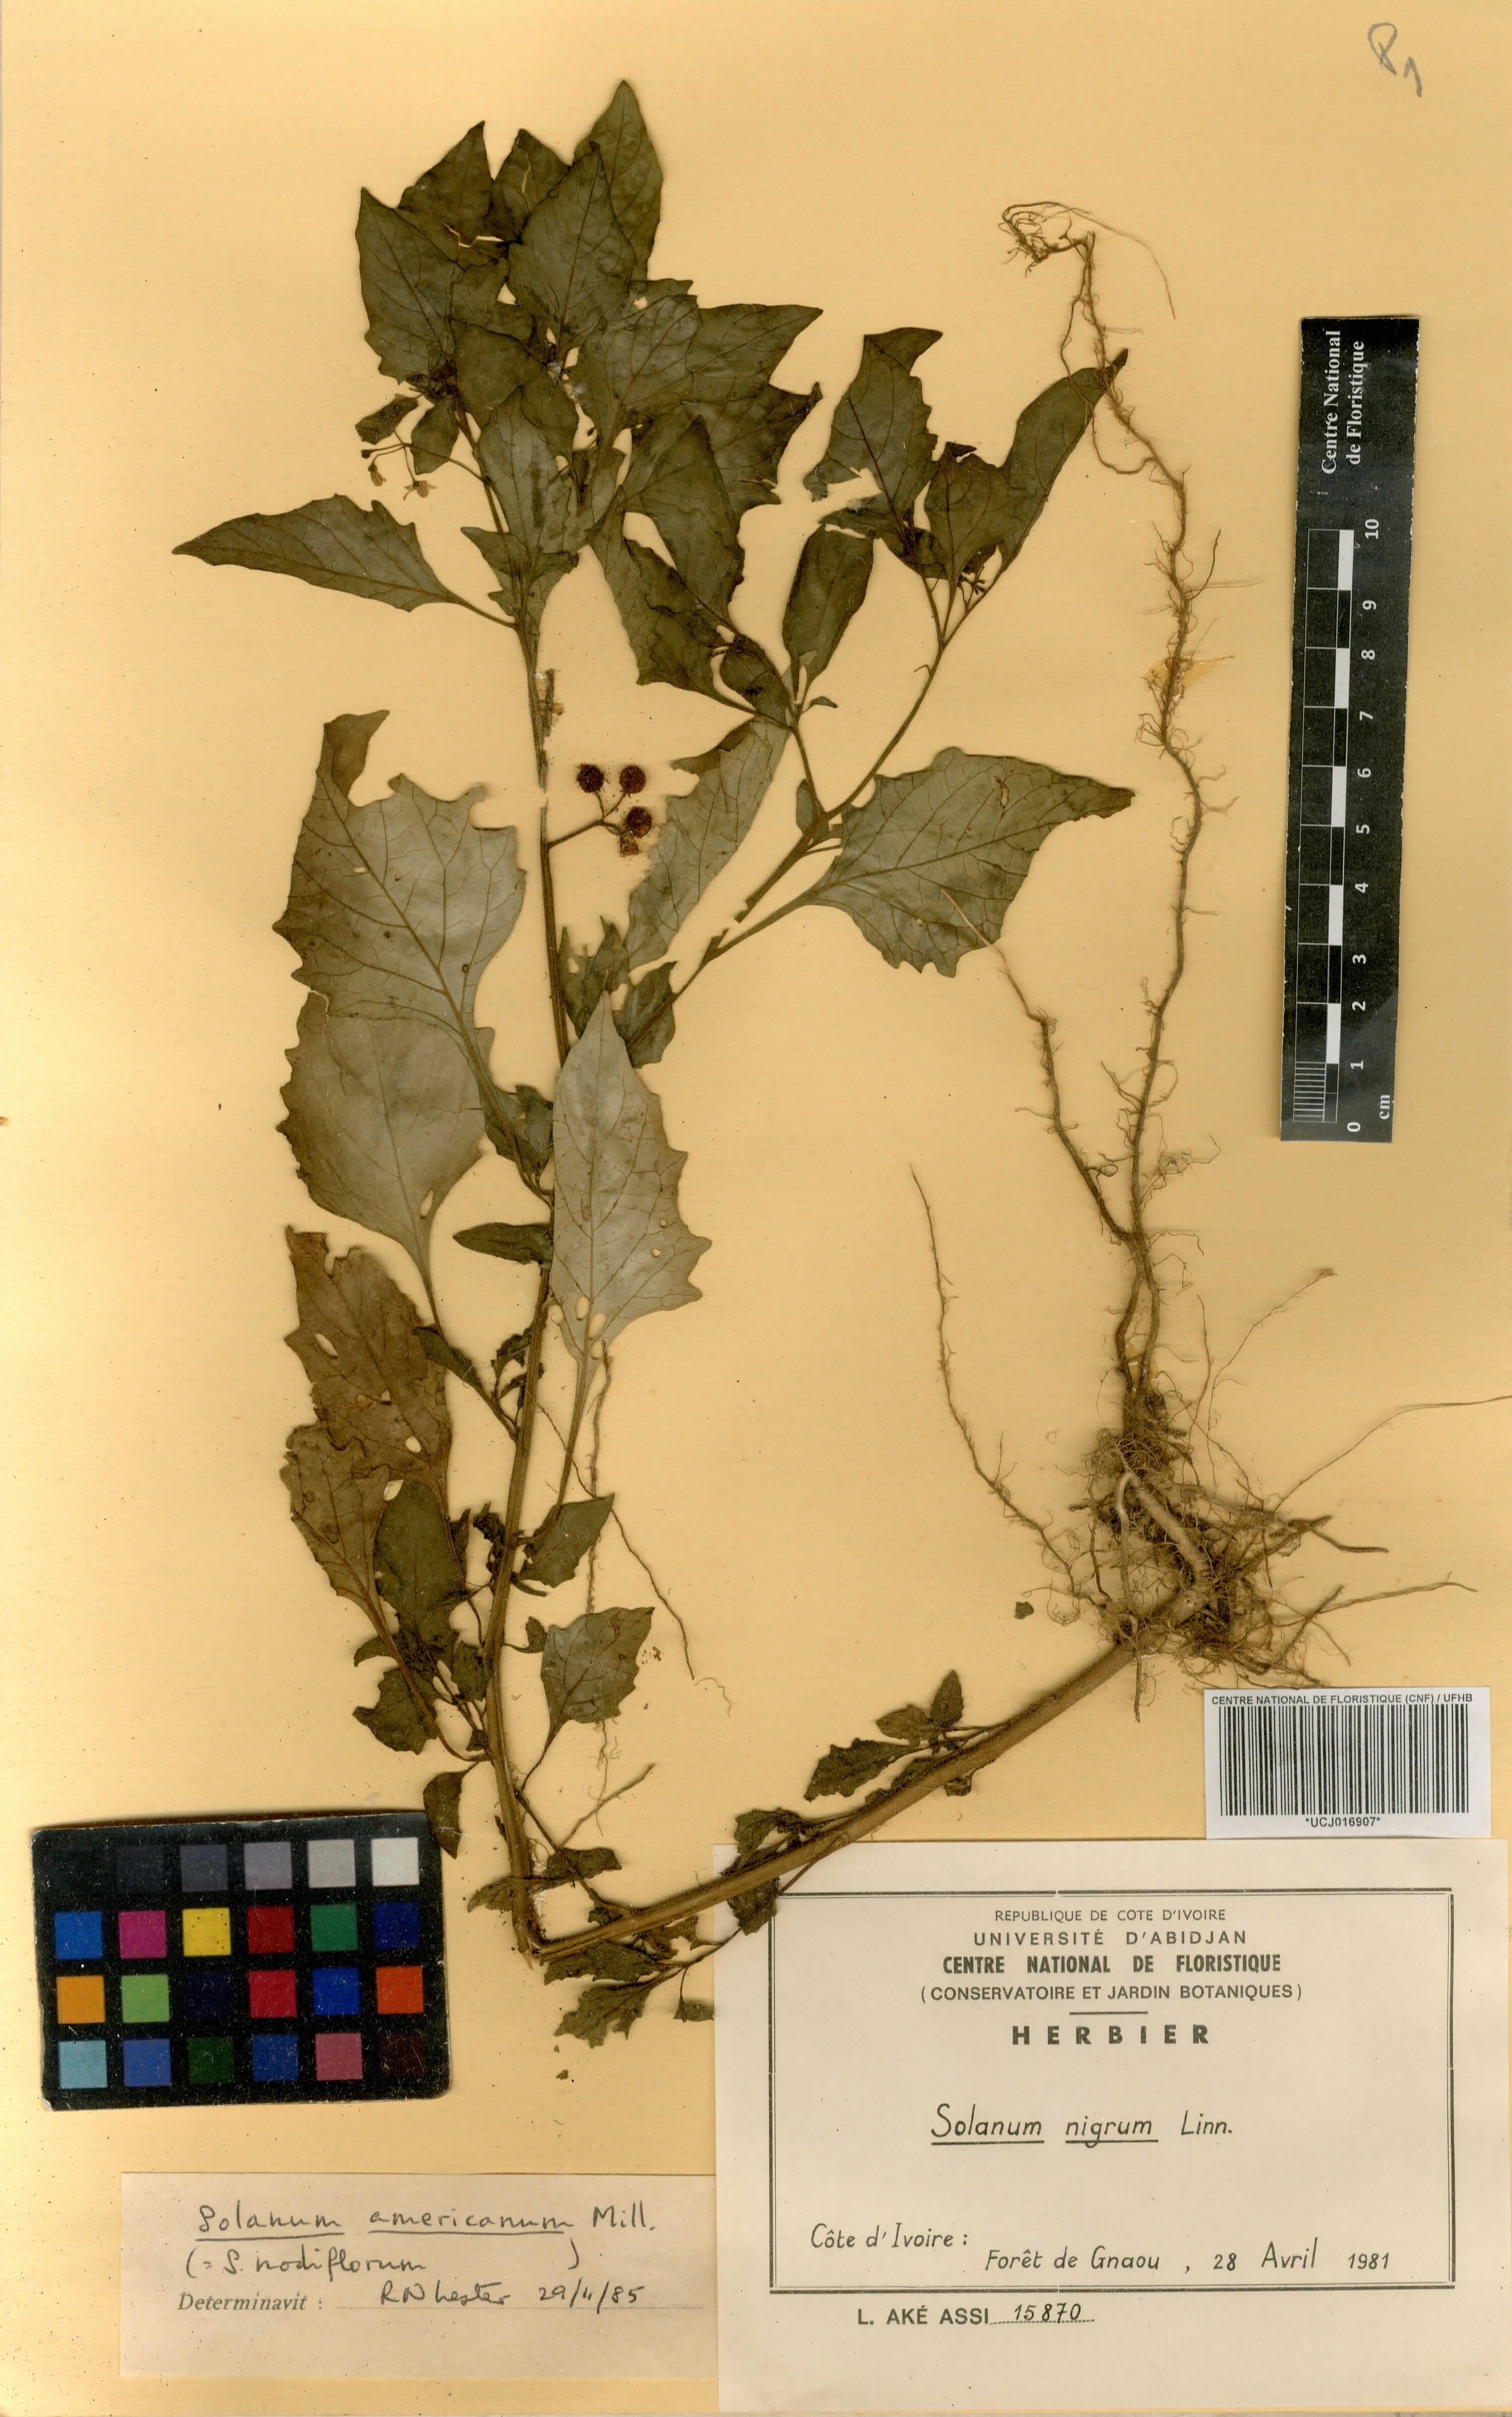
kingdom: Plantae
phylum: Tracheophyta
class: Magnoliopsida
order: Solanales
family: Solanaceae
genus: Solanum
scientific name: Solanum melongena
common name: Eggplant
